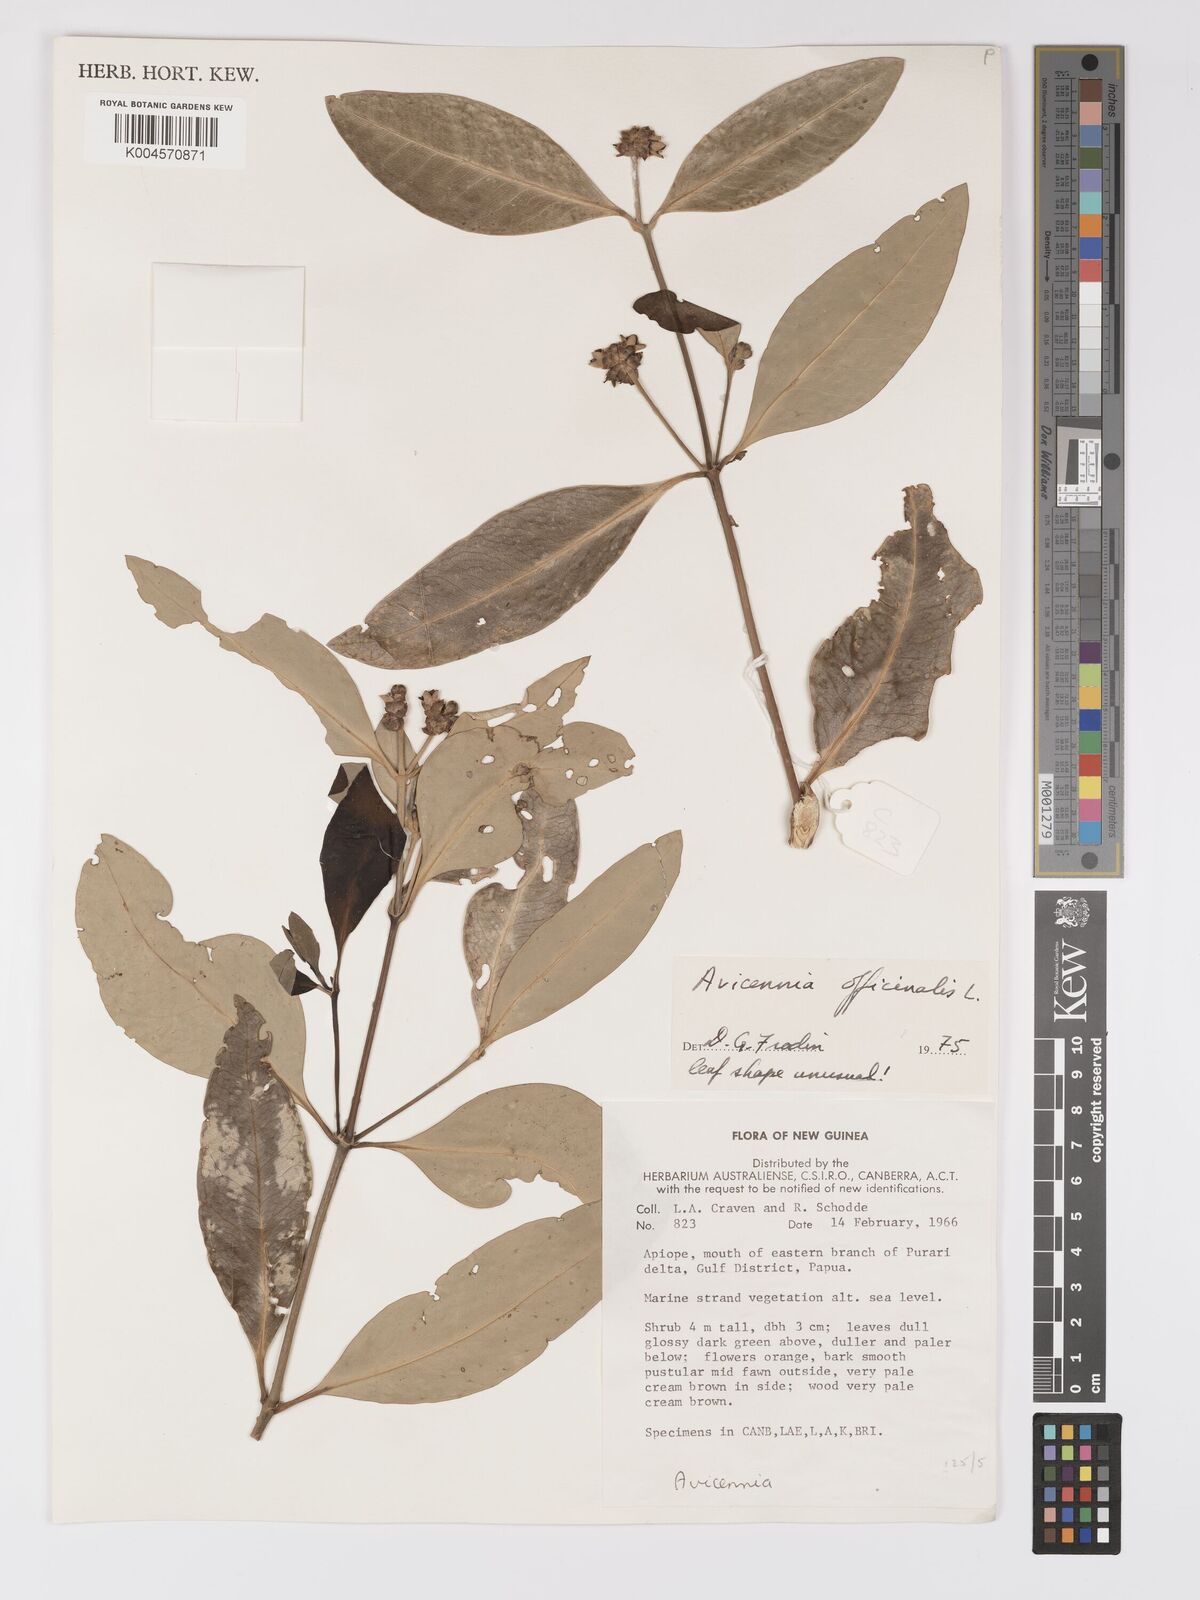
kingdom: Plantae
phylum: Tracheophyta
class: Magnoliopsida
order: Lamiales
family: Acanthaceae
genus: Avicennia
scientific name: Avicennia officinalis
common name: Baen
